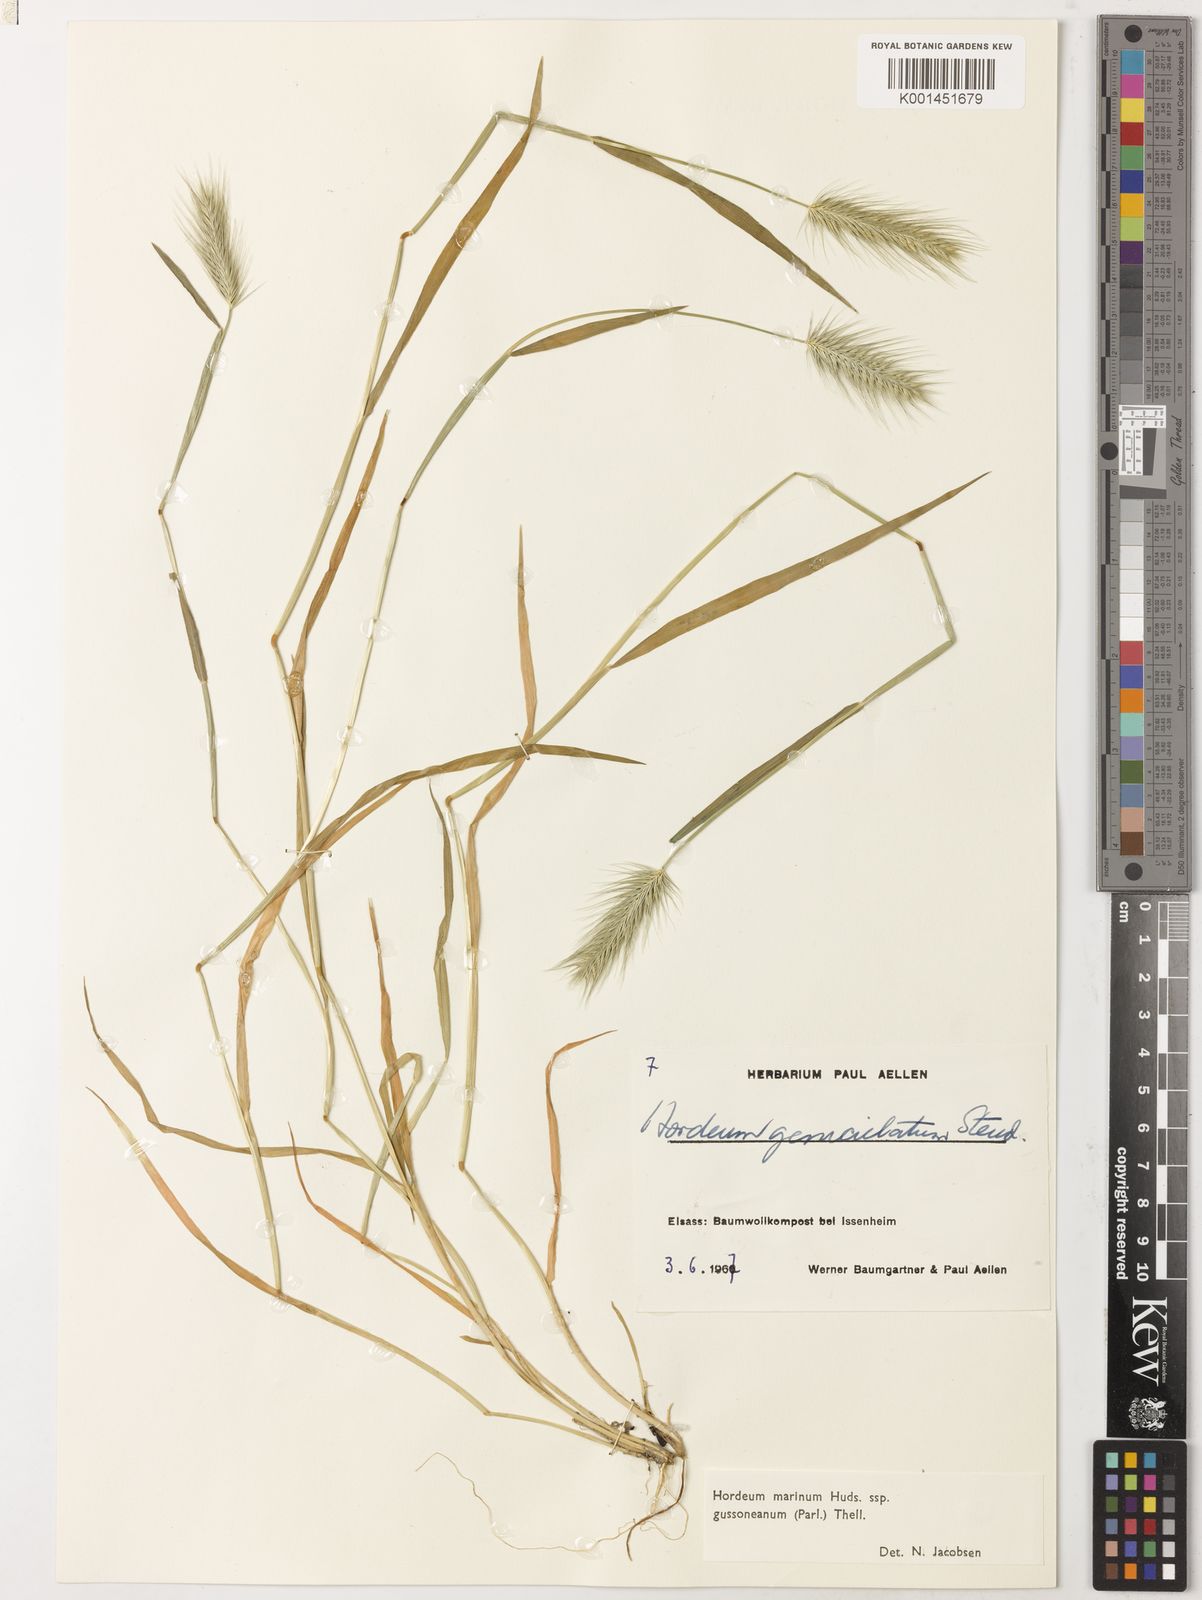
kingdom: Plantae
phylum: Tracheophyta
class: Liliopsida
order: Poales
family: Poaceae
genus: Hordeum
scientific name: Hordeum marinum
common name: Sea barley
